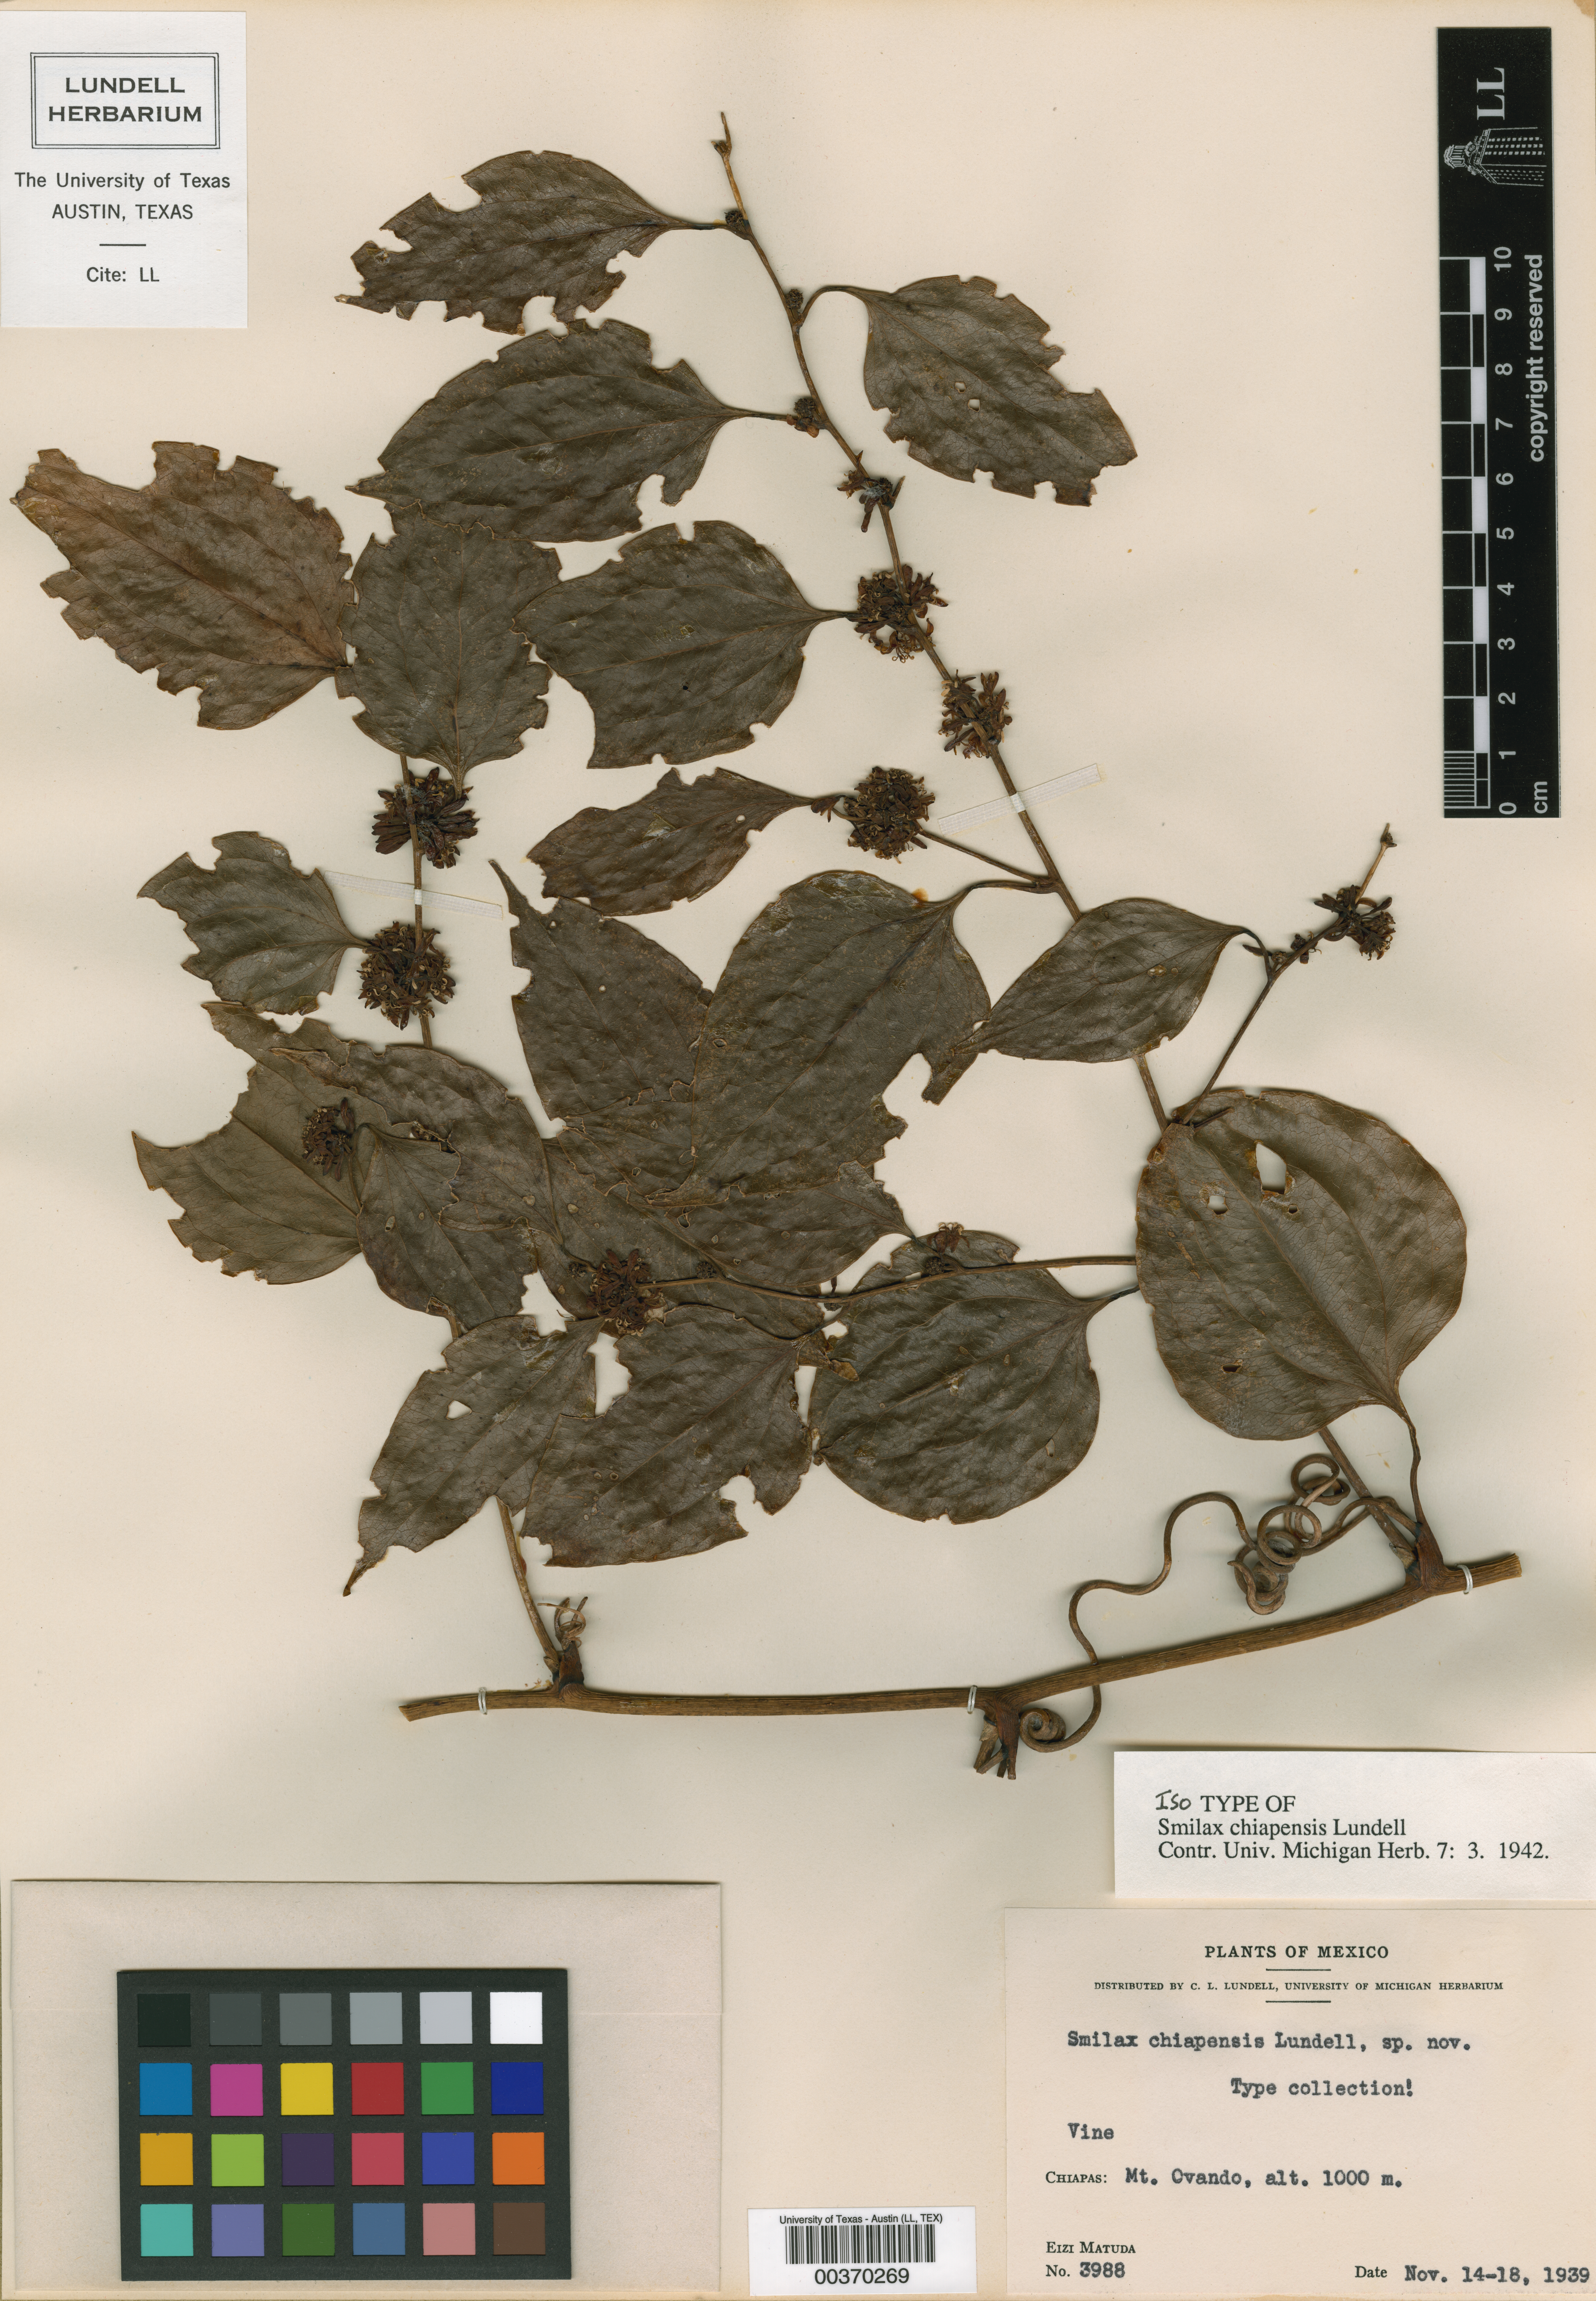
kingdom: Plantae
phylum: Tracheophyta
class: Liliopsida
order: Liliales
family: Smilacaceae
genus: Smilax
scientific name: Smilax domingensis
